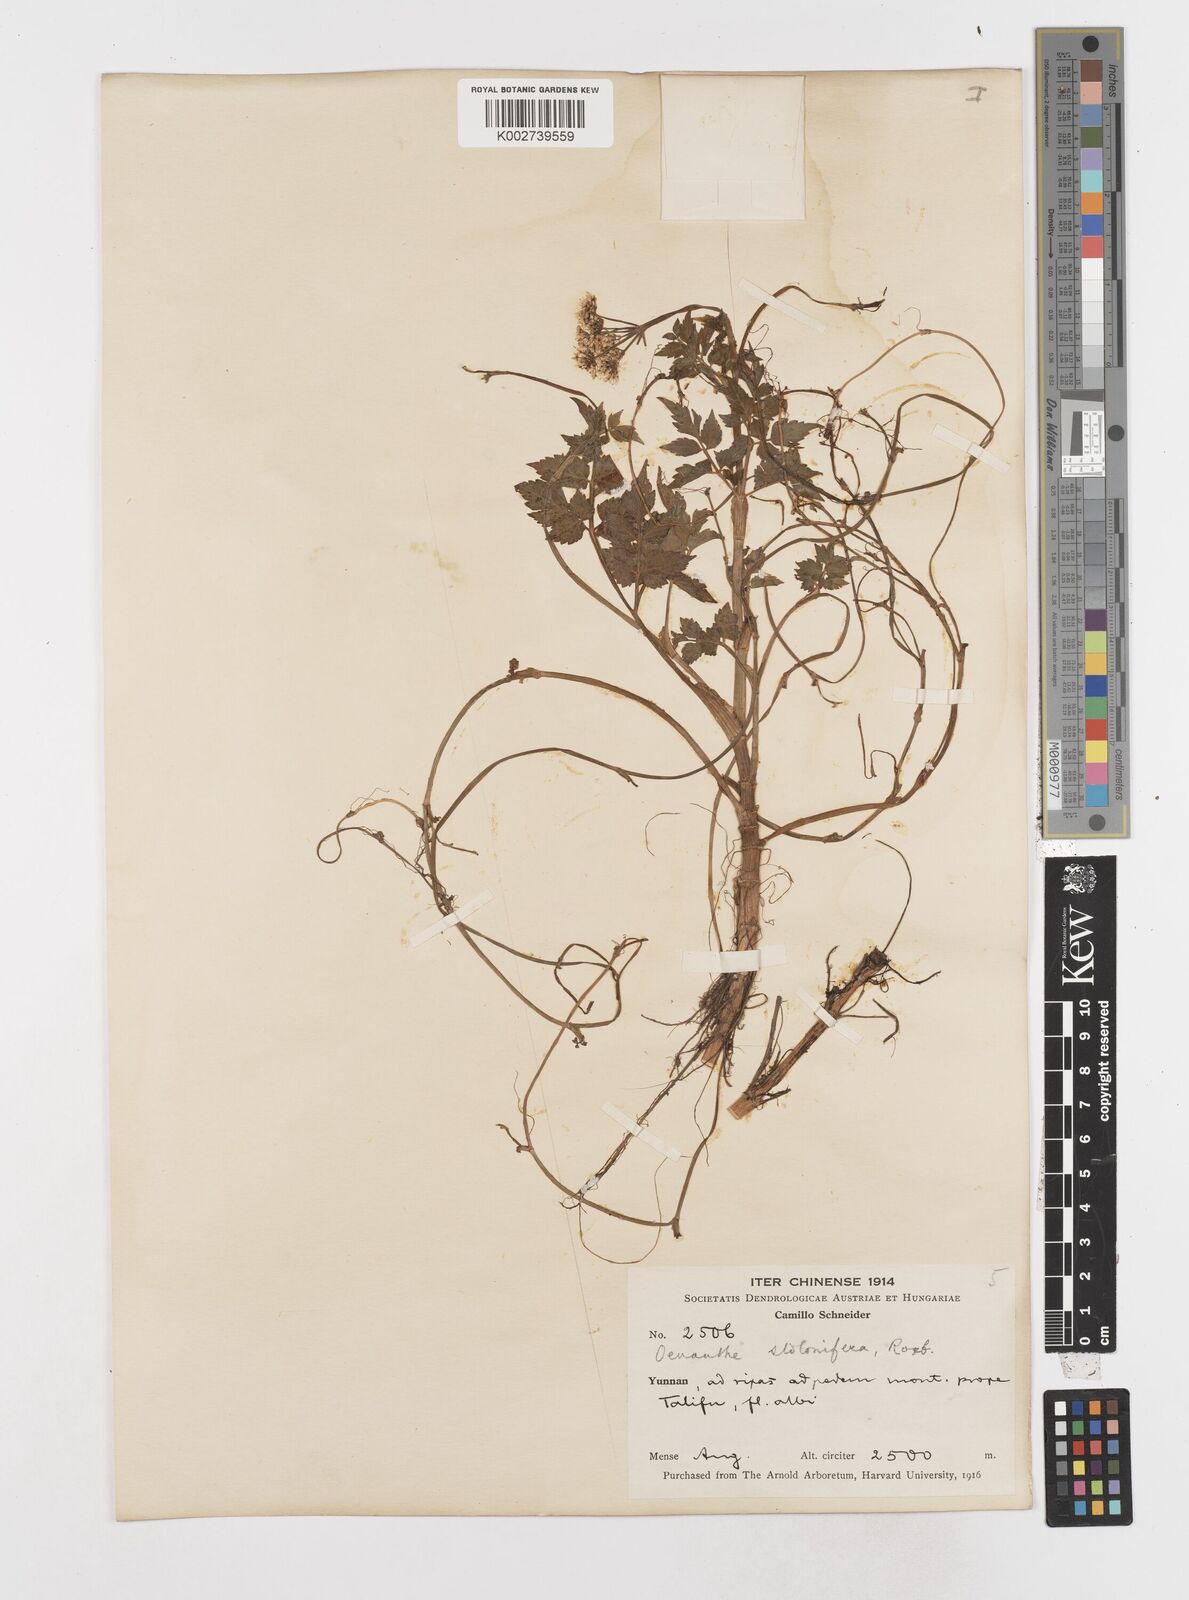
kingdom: Plantae
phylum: Tracheophyta
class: Magnoliopsida
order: Apiales
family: Apiaceae
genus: Oenanthe
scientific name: Oenanthe javanica
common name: Java water-dropwort
